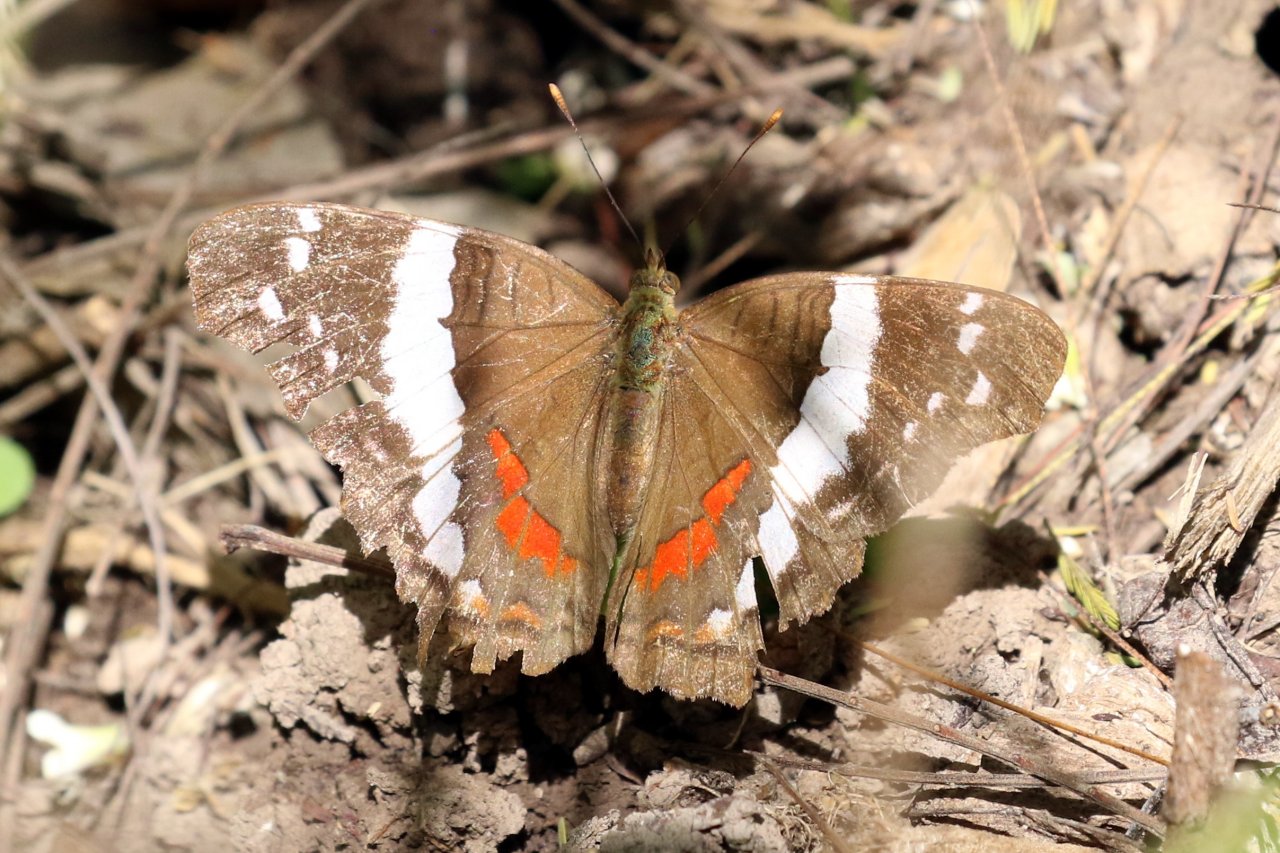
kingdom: Animalia
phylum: Arthropoda
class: Insecta
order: Lepidoptera
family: Nymphalidae
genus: Anartia
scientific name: Anartia fatima
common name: Banded Peacock
